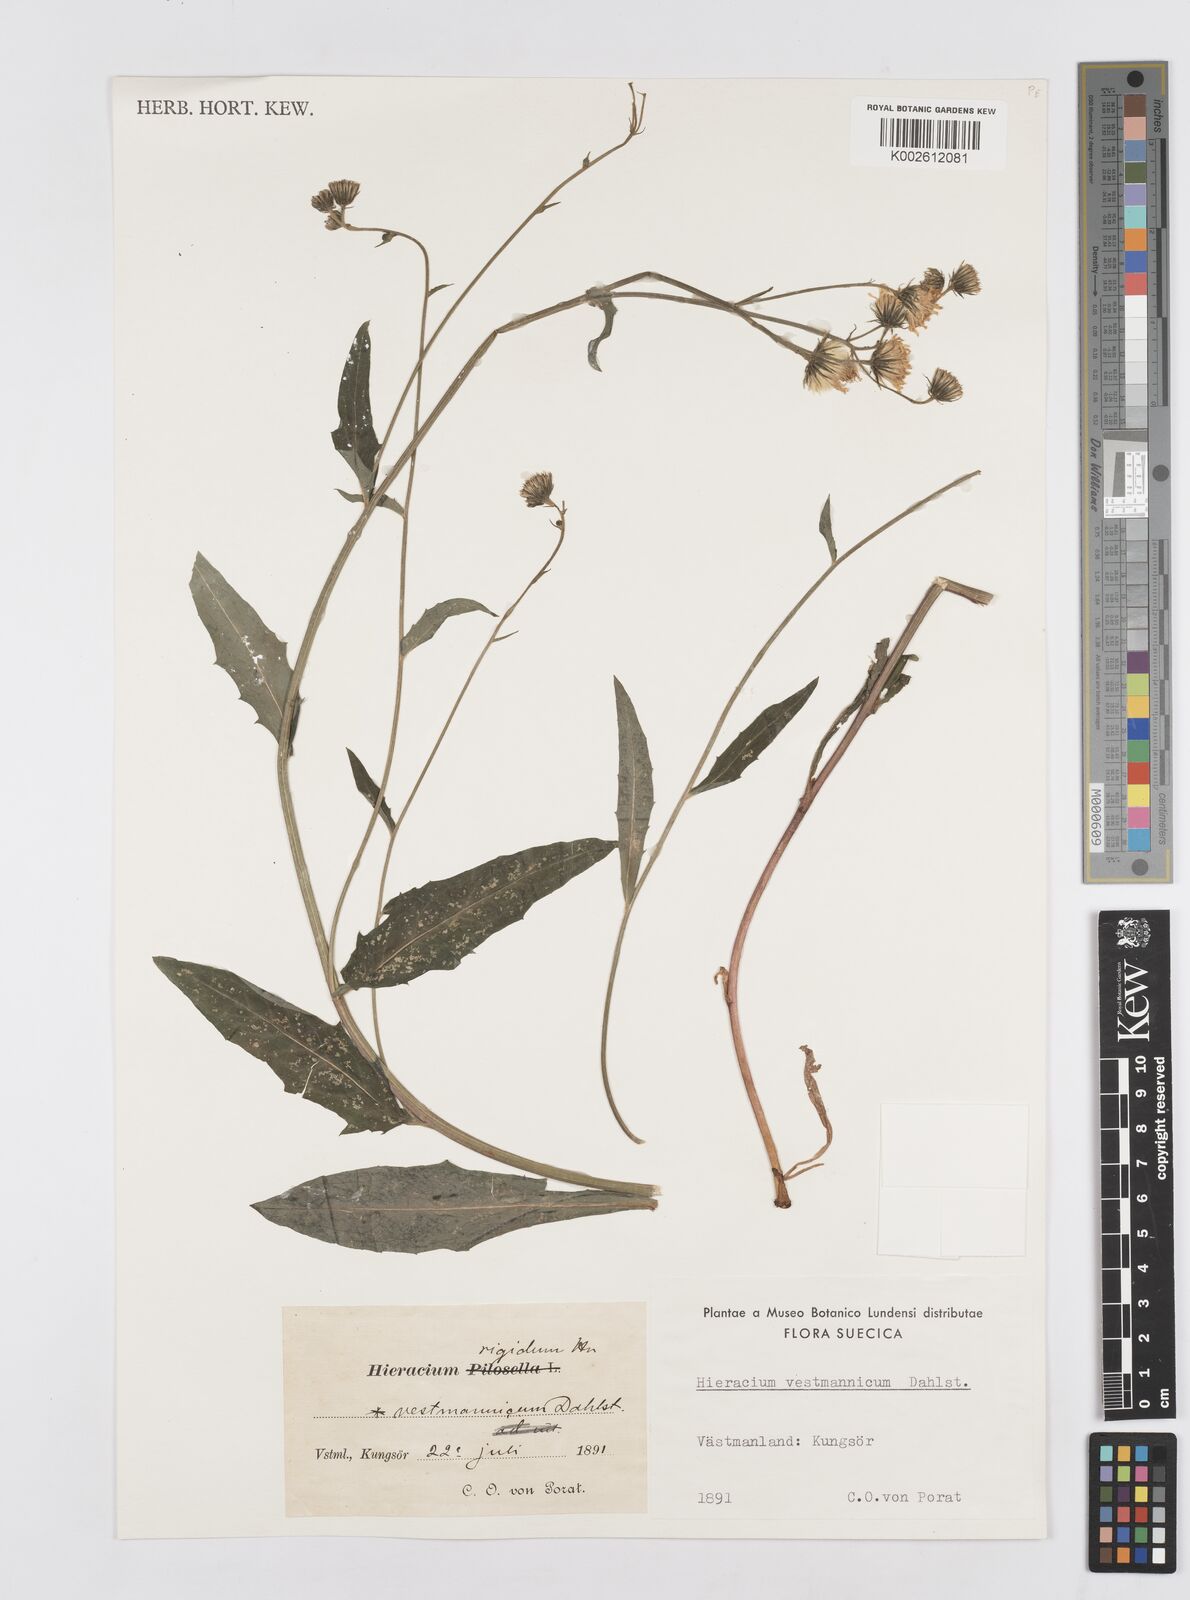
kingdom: Plantae
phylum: Tracheophyta
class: Magnoliopsida
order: Asterales
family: Asteraceae
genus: Hieracium
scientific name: Hieracium vestmannicum
